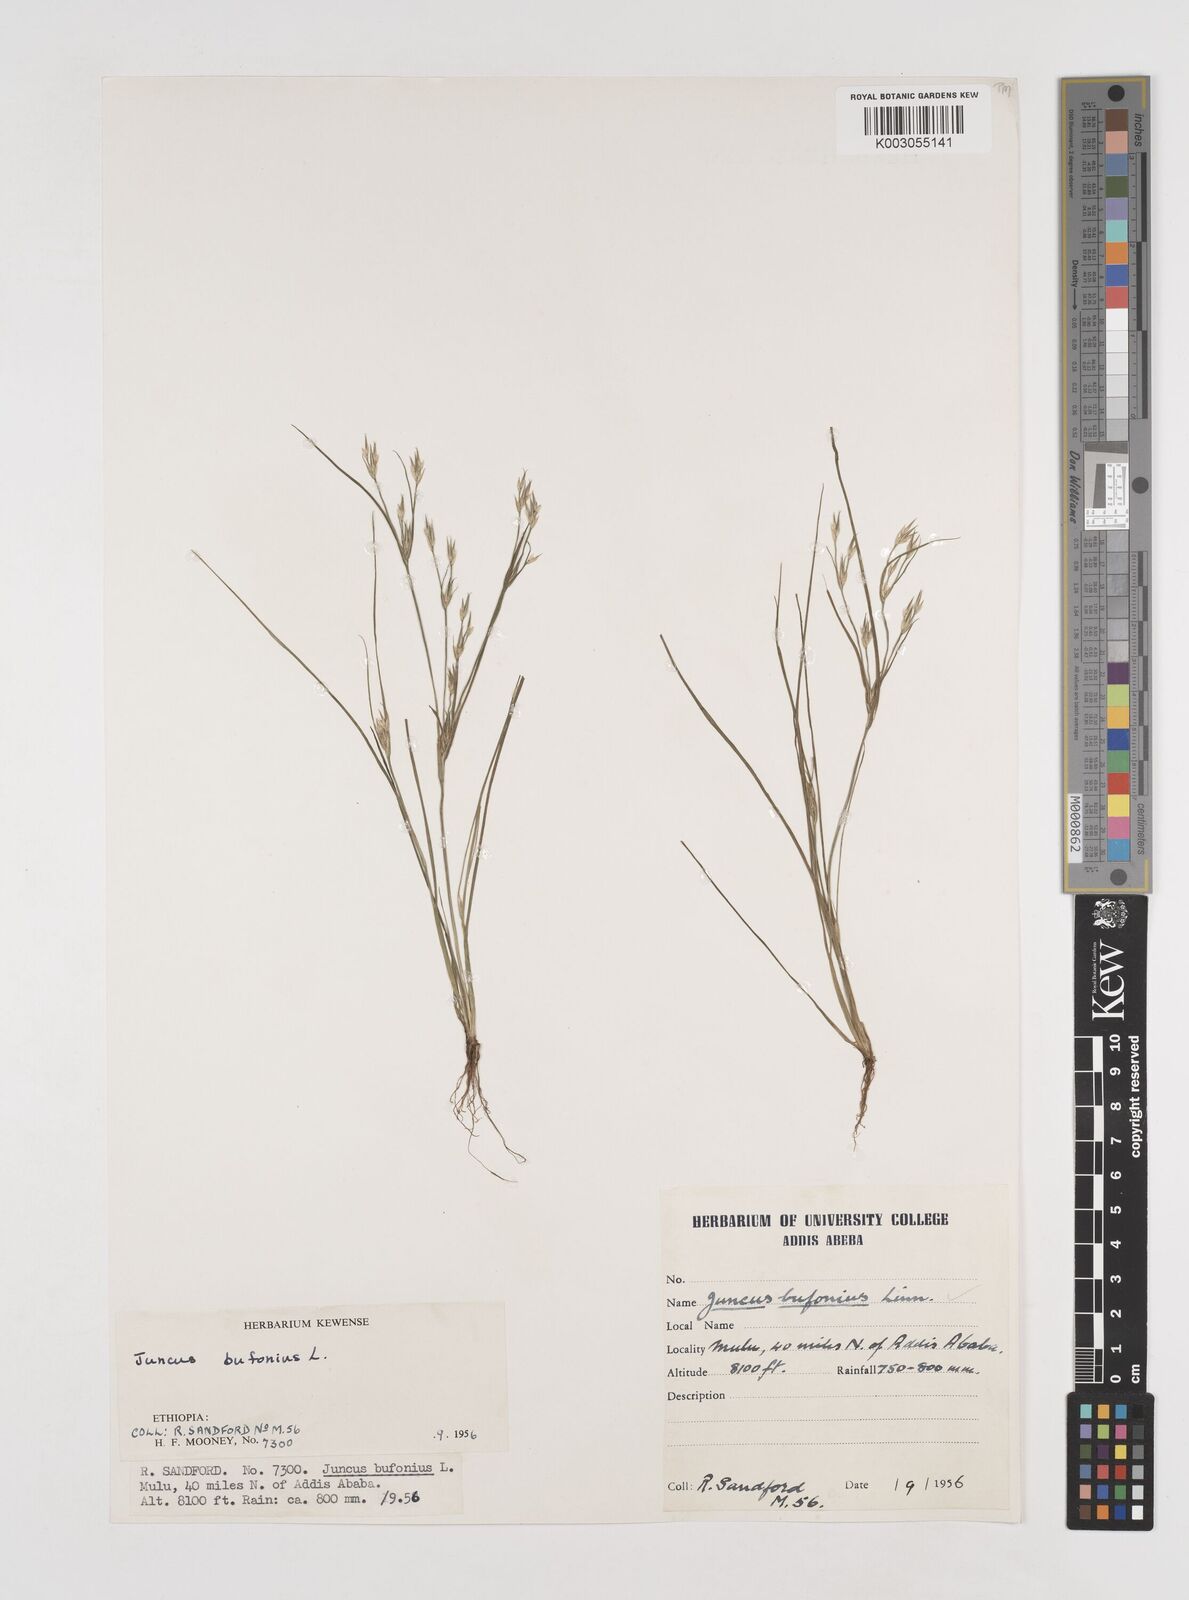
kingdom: Plantae
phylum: Tracheophyta
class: Liliopsida
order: Poales
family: Juncaceae
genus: Juncus
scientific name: Juncus bufonius
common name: Toad rush
